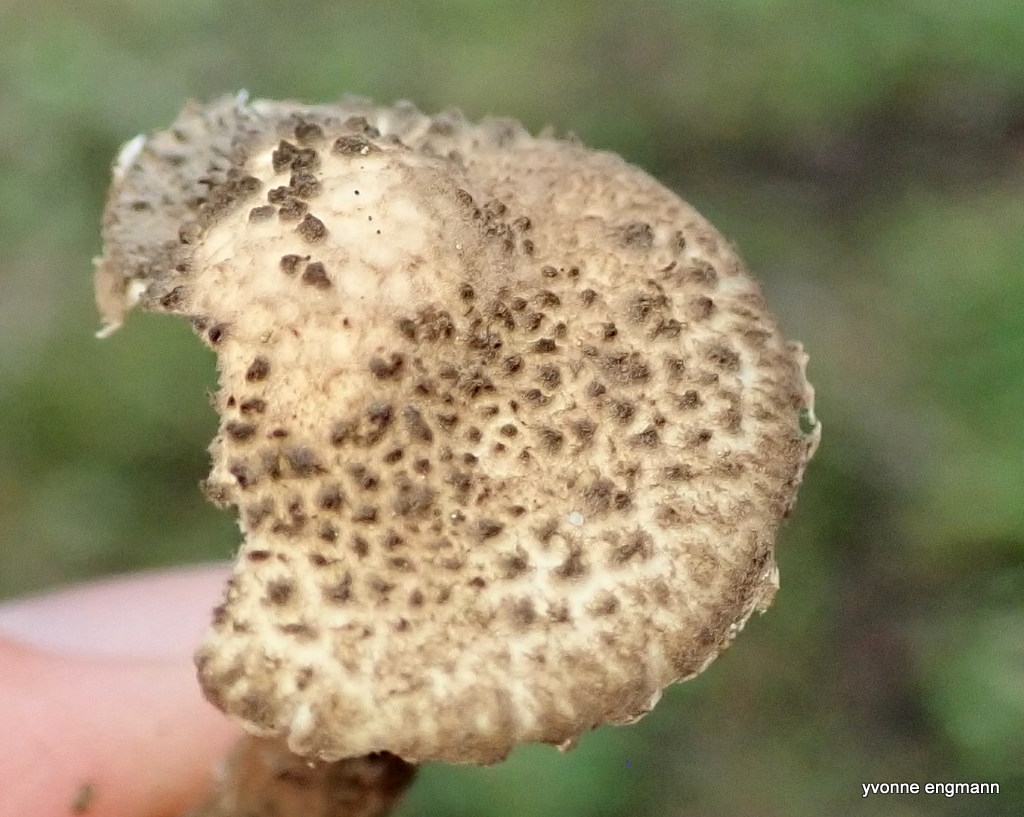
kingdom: Fungi
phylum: Basidiomycota
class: Agaricomycetes
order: Agaricales
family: Agaricaceae
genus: Echinoderma
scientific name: Echinoderma jacobi
